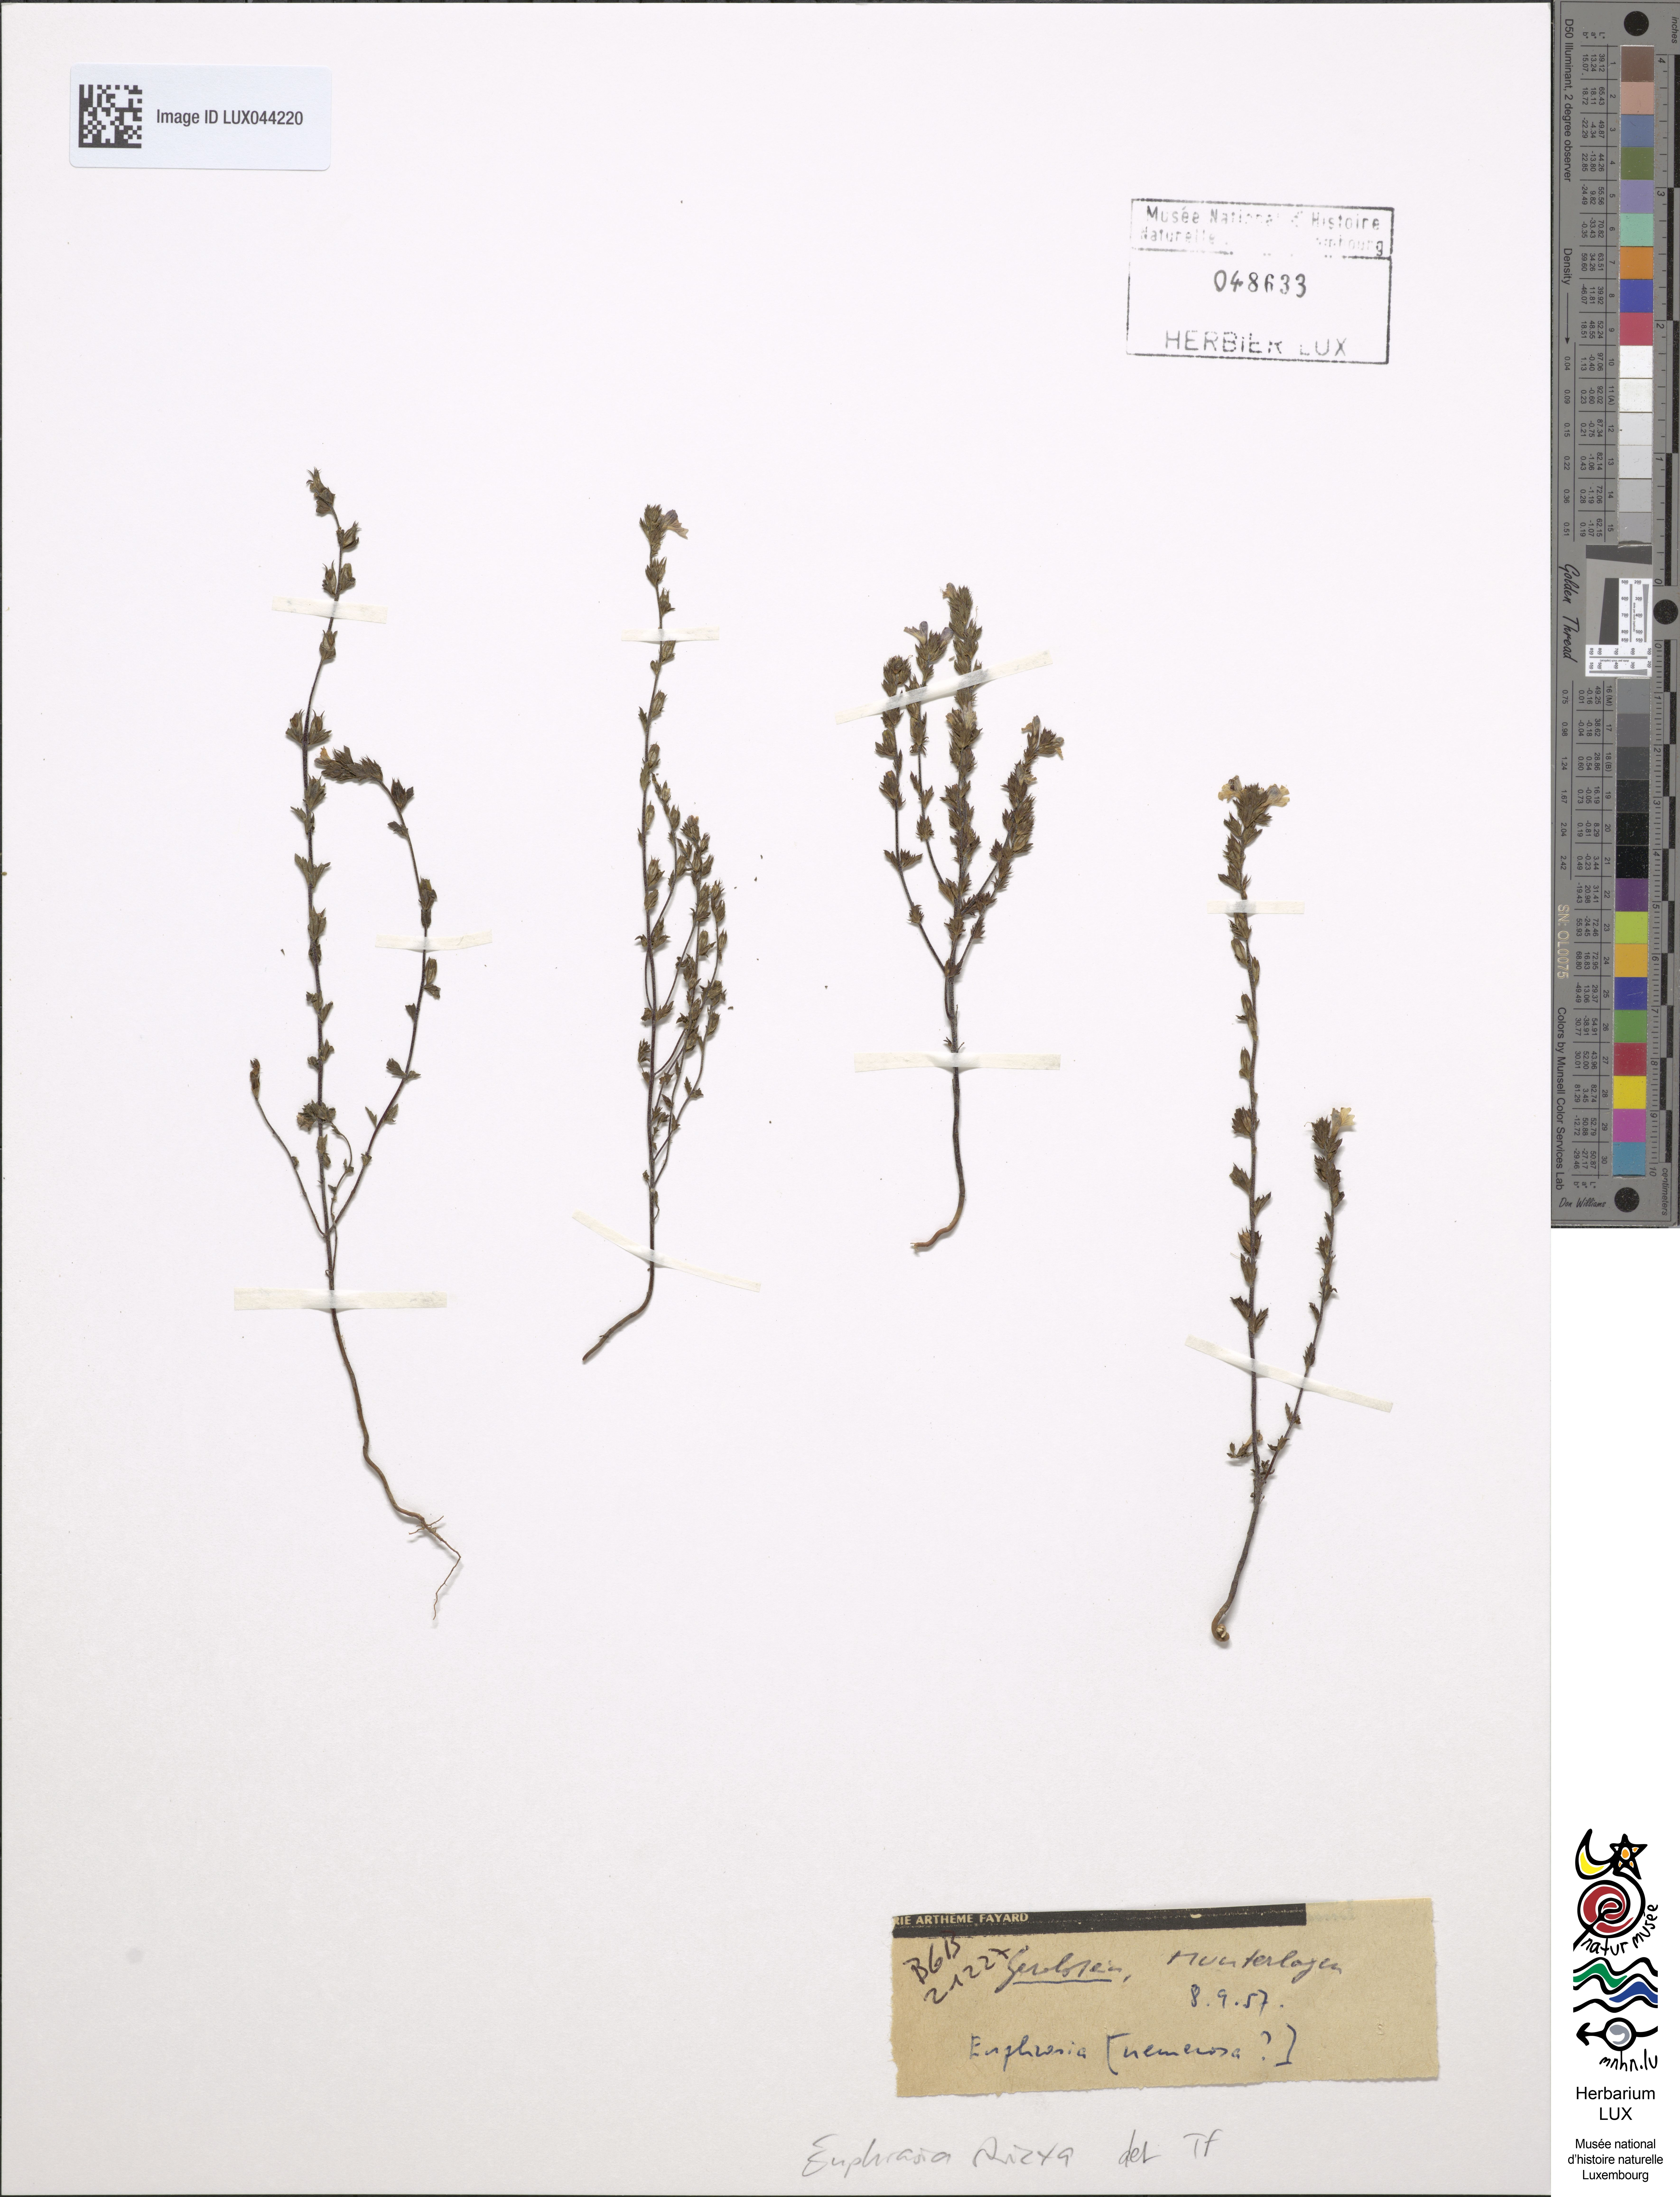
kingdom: Plantae
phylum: Tracheophyta
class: Magnoliopsida
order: Lamiales
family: Orobanchaceae
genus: Euphrasia
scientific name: Euphrasia stricta
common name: Drug eyebright
